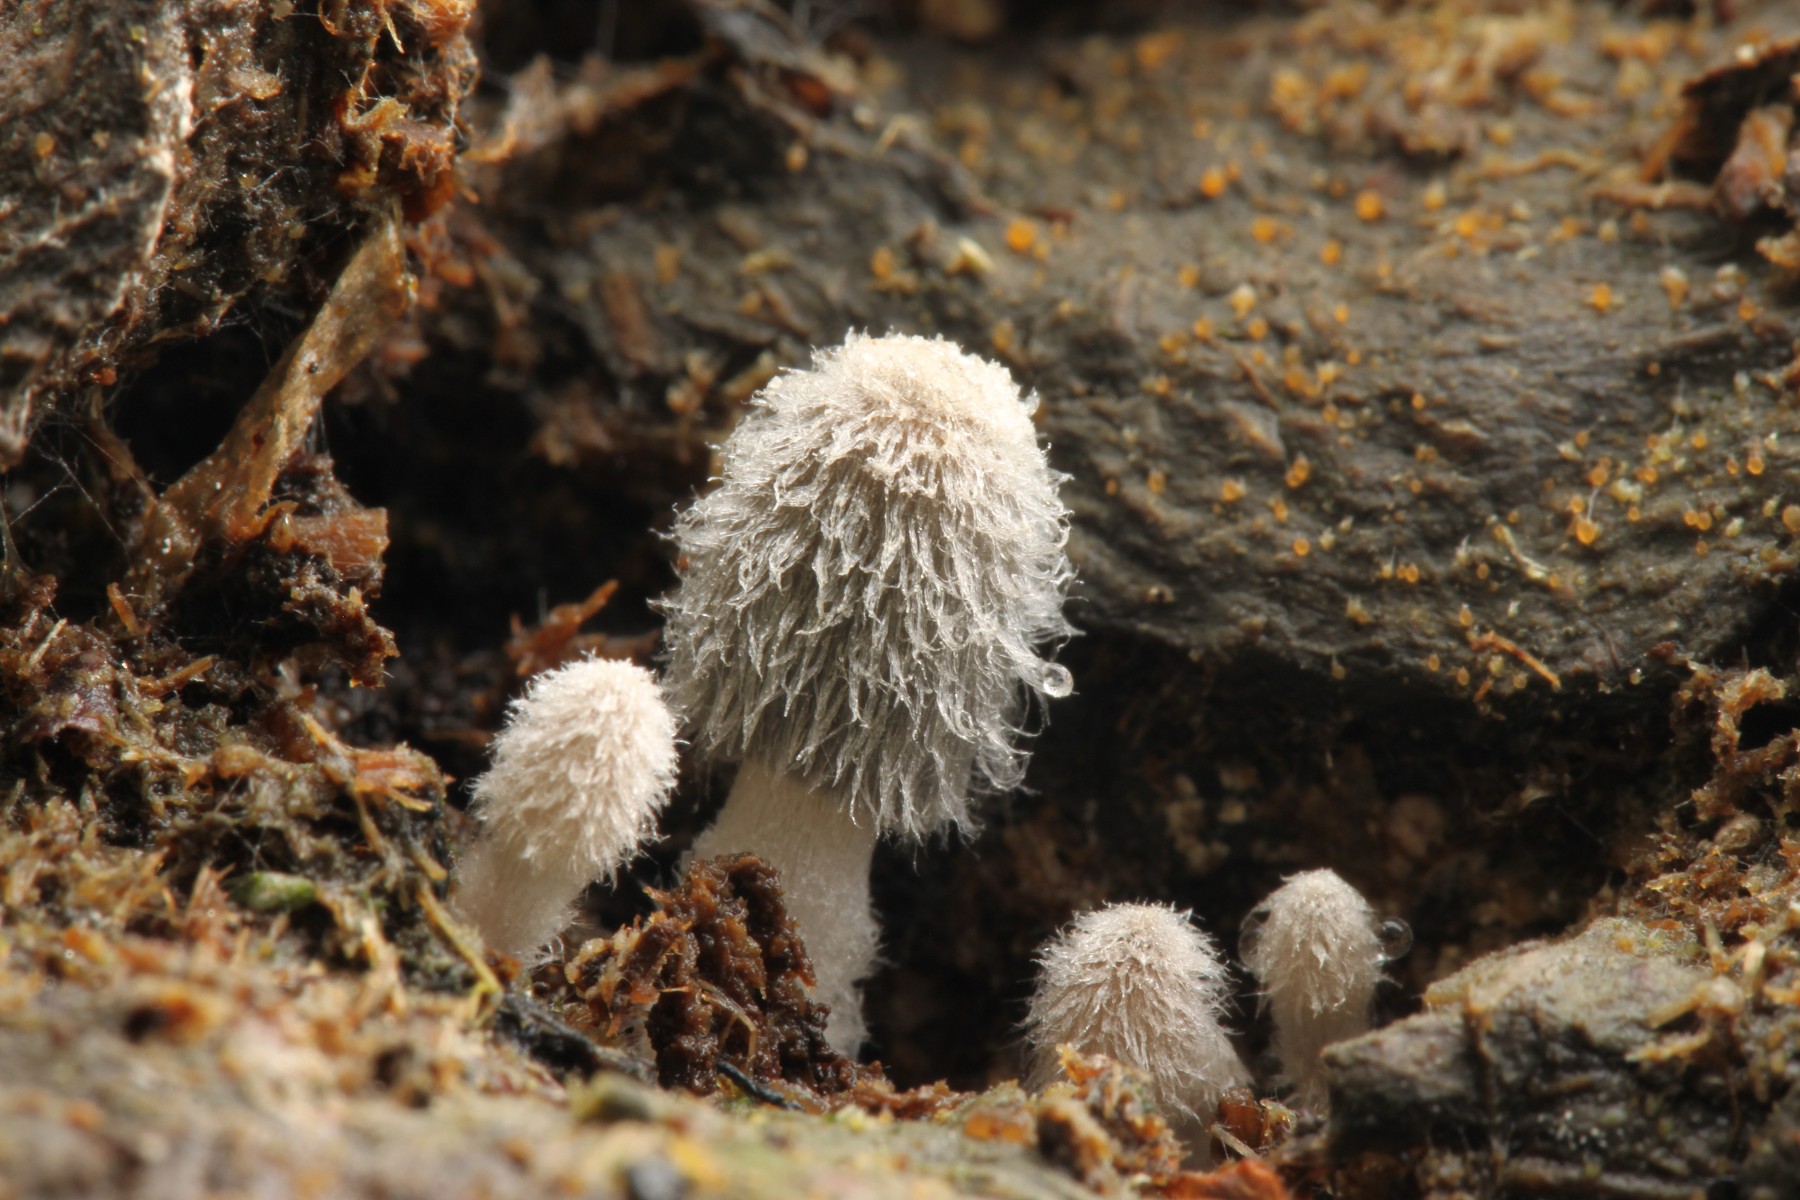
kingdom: Fungi
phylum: Basidiomycota
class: Agaricomycetes
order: Agaricales
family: Psathyrellaceae
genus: Coprinopsis
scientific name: Coprinopsis cinerea
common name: mødding-blækhat
